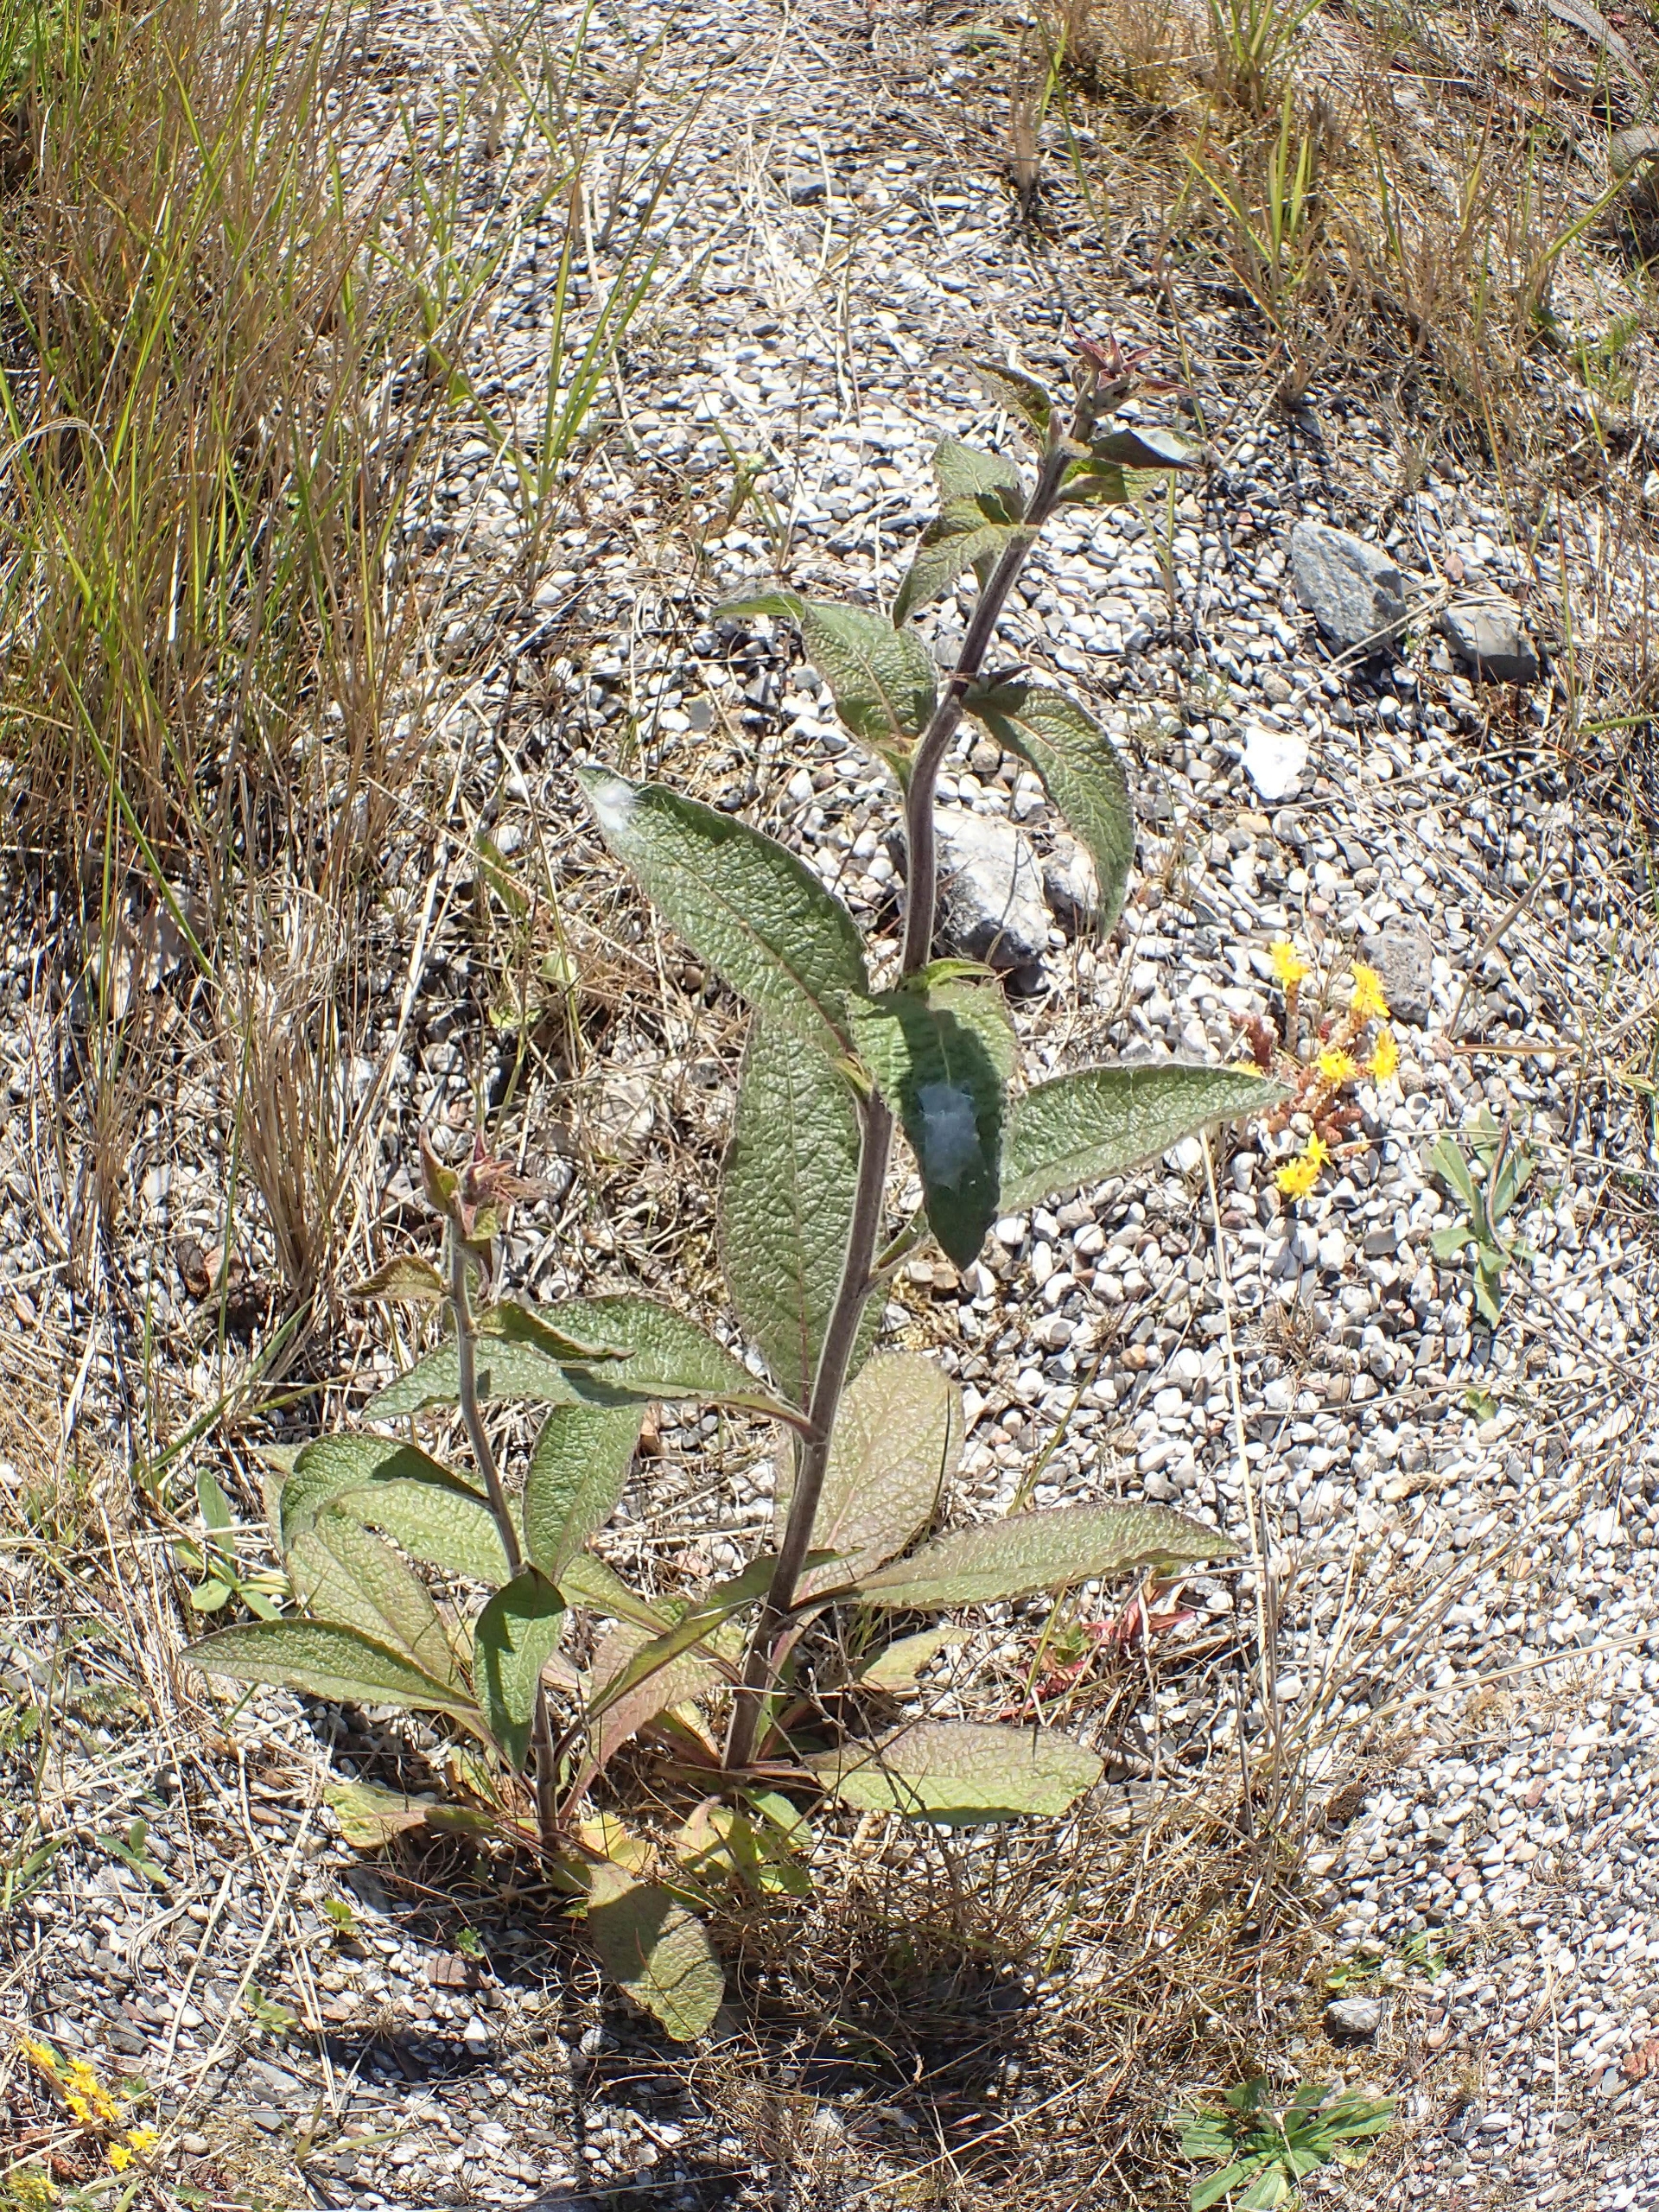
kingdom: Plantae
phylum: Tracheophyta
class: Magnoliopsida
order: Asterales
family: Asteraceae
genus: Pentanema
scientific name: Pentanema squarrosum
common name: Trekløft-alant
